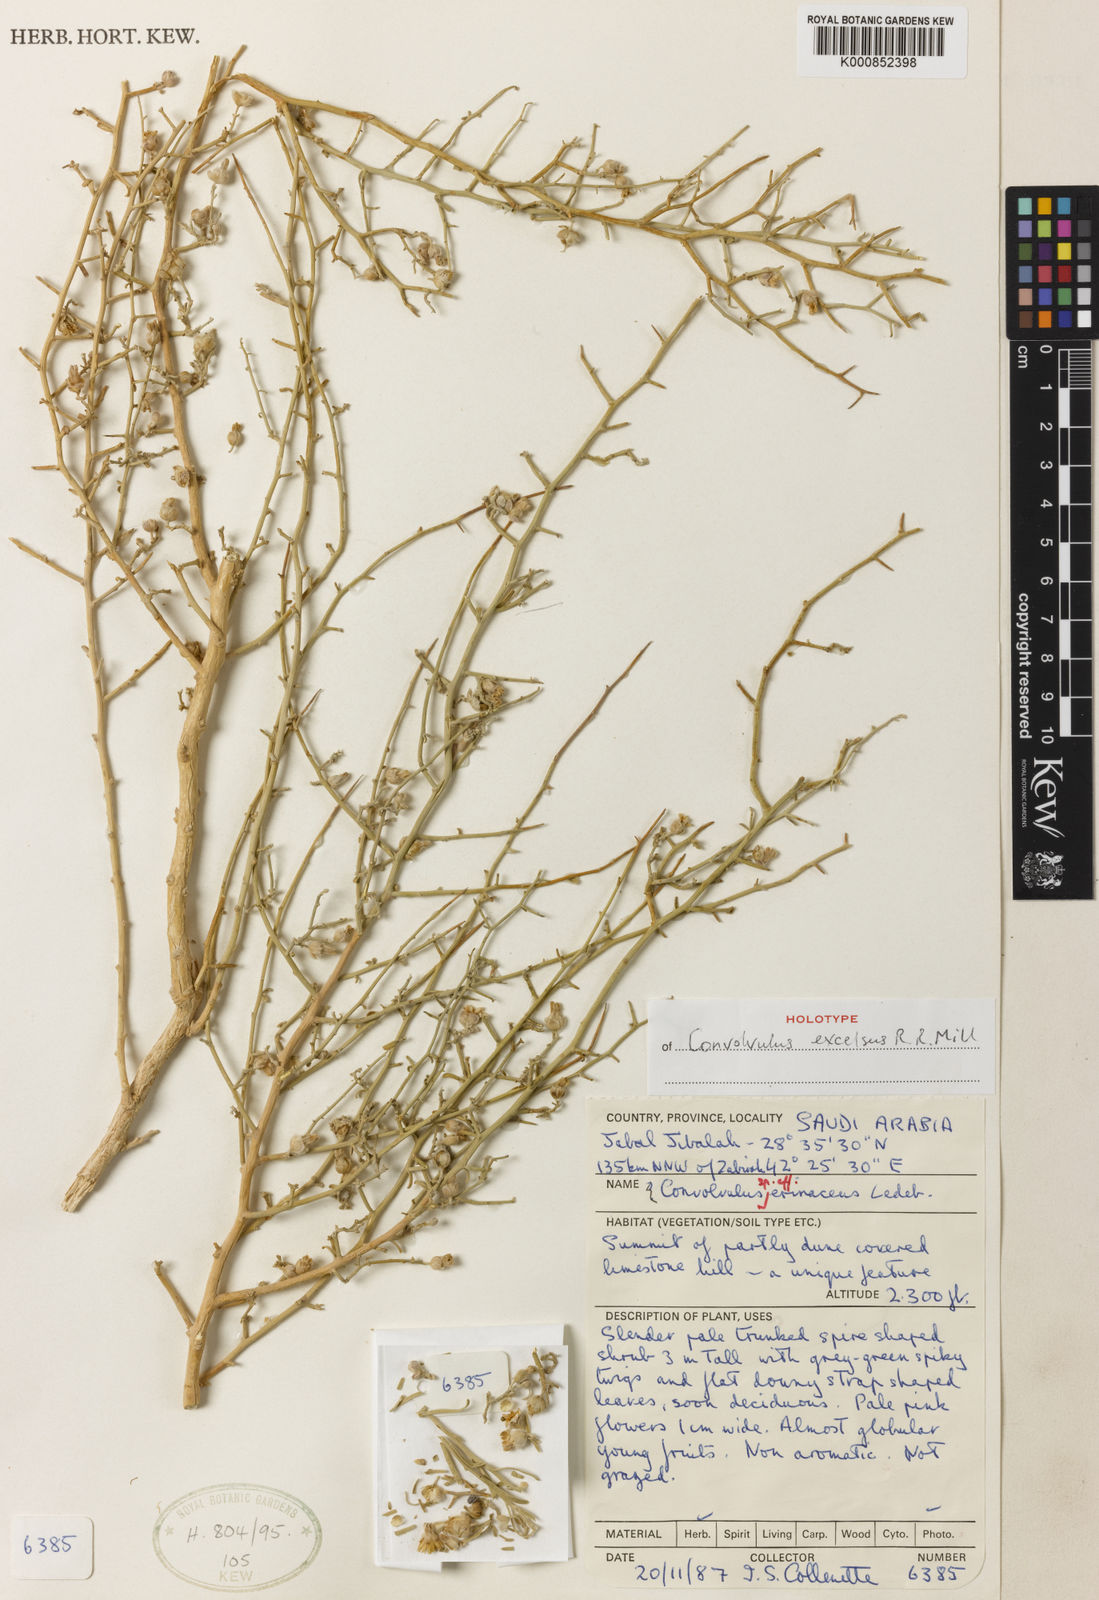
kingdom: Plantae
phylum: Tracheophyta
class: Magnoliopsida
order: Solanales
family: Convolvulaceae
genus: Convolvulus
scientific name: Convolvulus erinaceus
